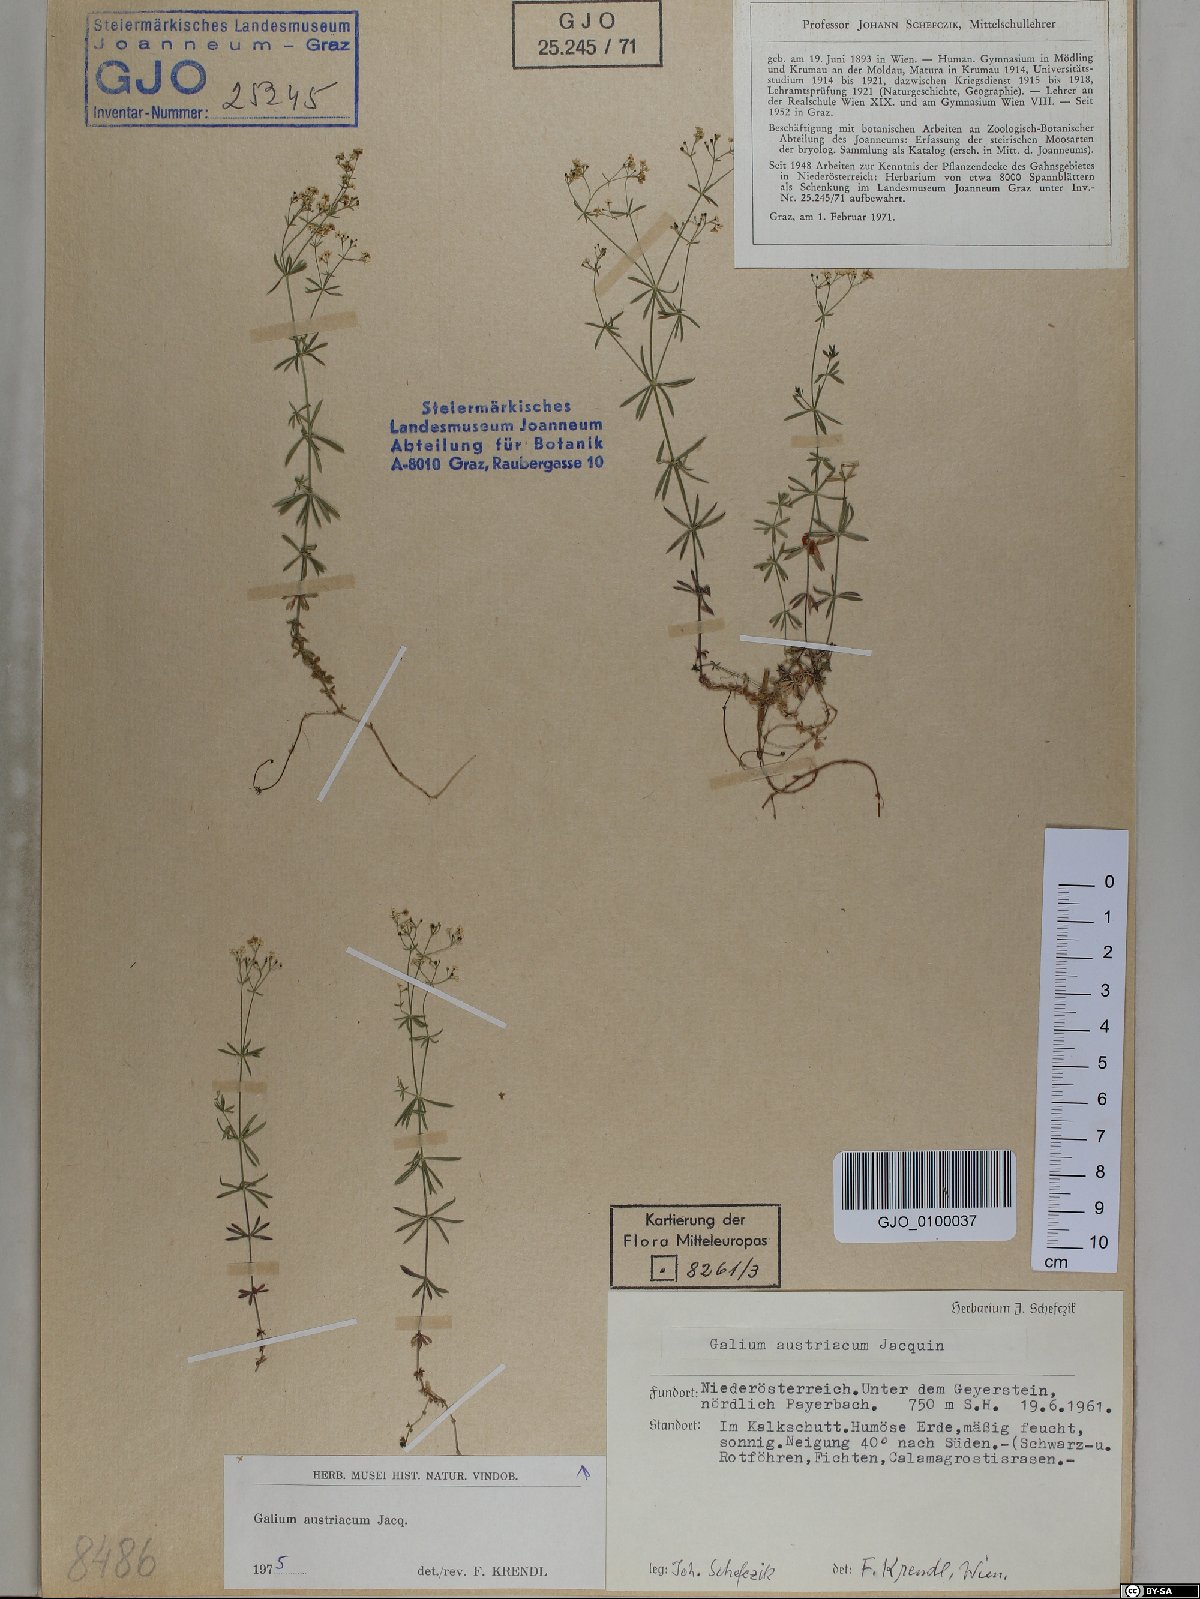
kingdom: Plantae
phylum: Tracheophyta
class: Magnoliopsida
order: Gentianales
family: Rubiaceae
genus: Galium
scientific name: Galium austriacum
